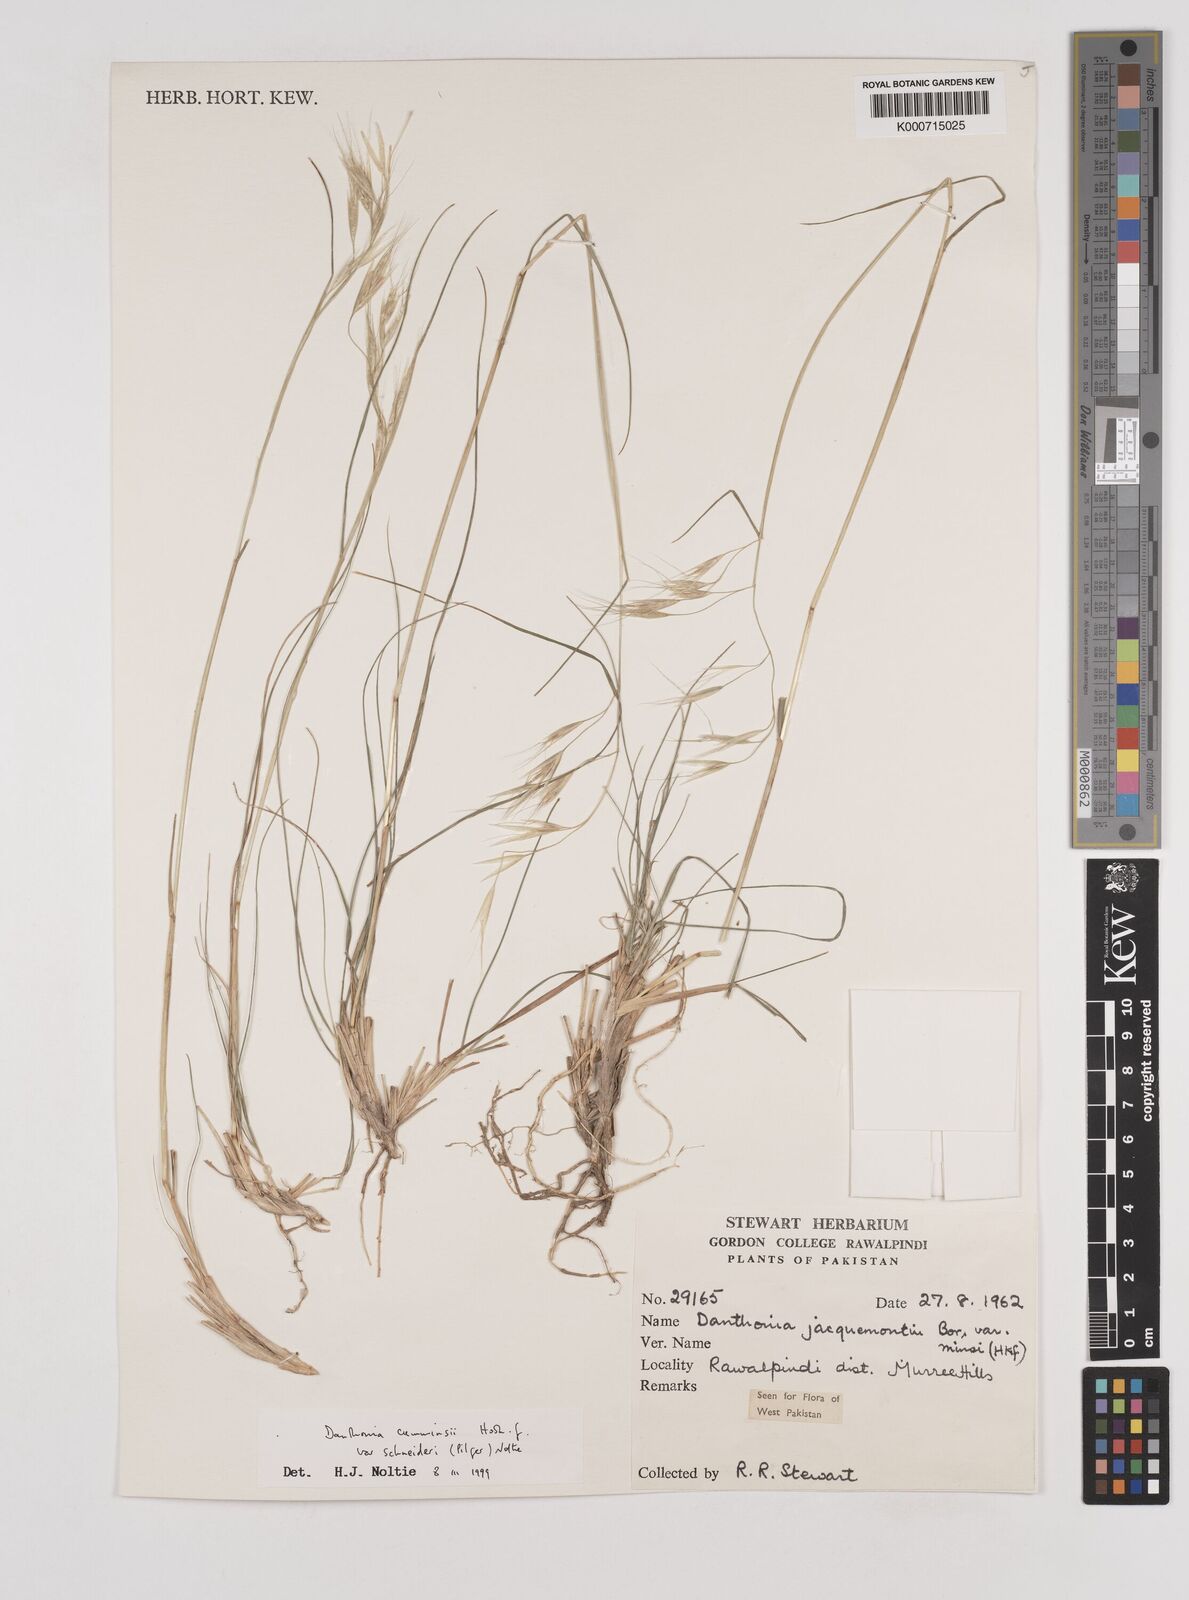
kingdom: Plantae
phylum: Tracheophyta
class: Liliopsida
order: Poales
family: Poaceae
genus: Rytidosperma
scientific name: Rytidosperma
